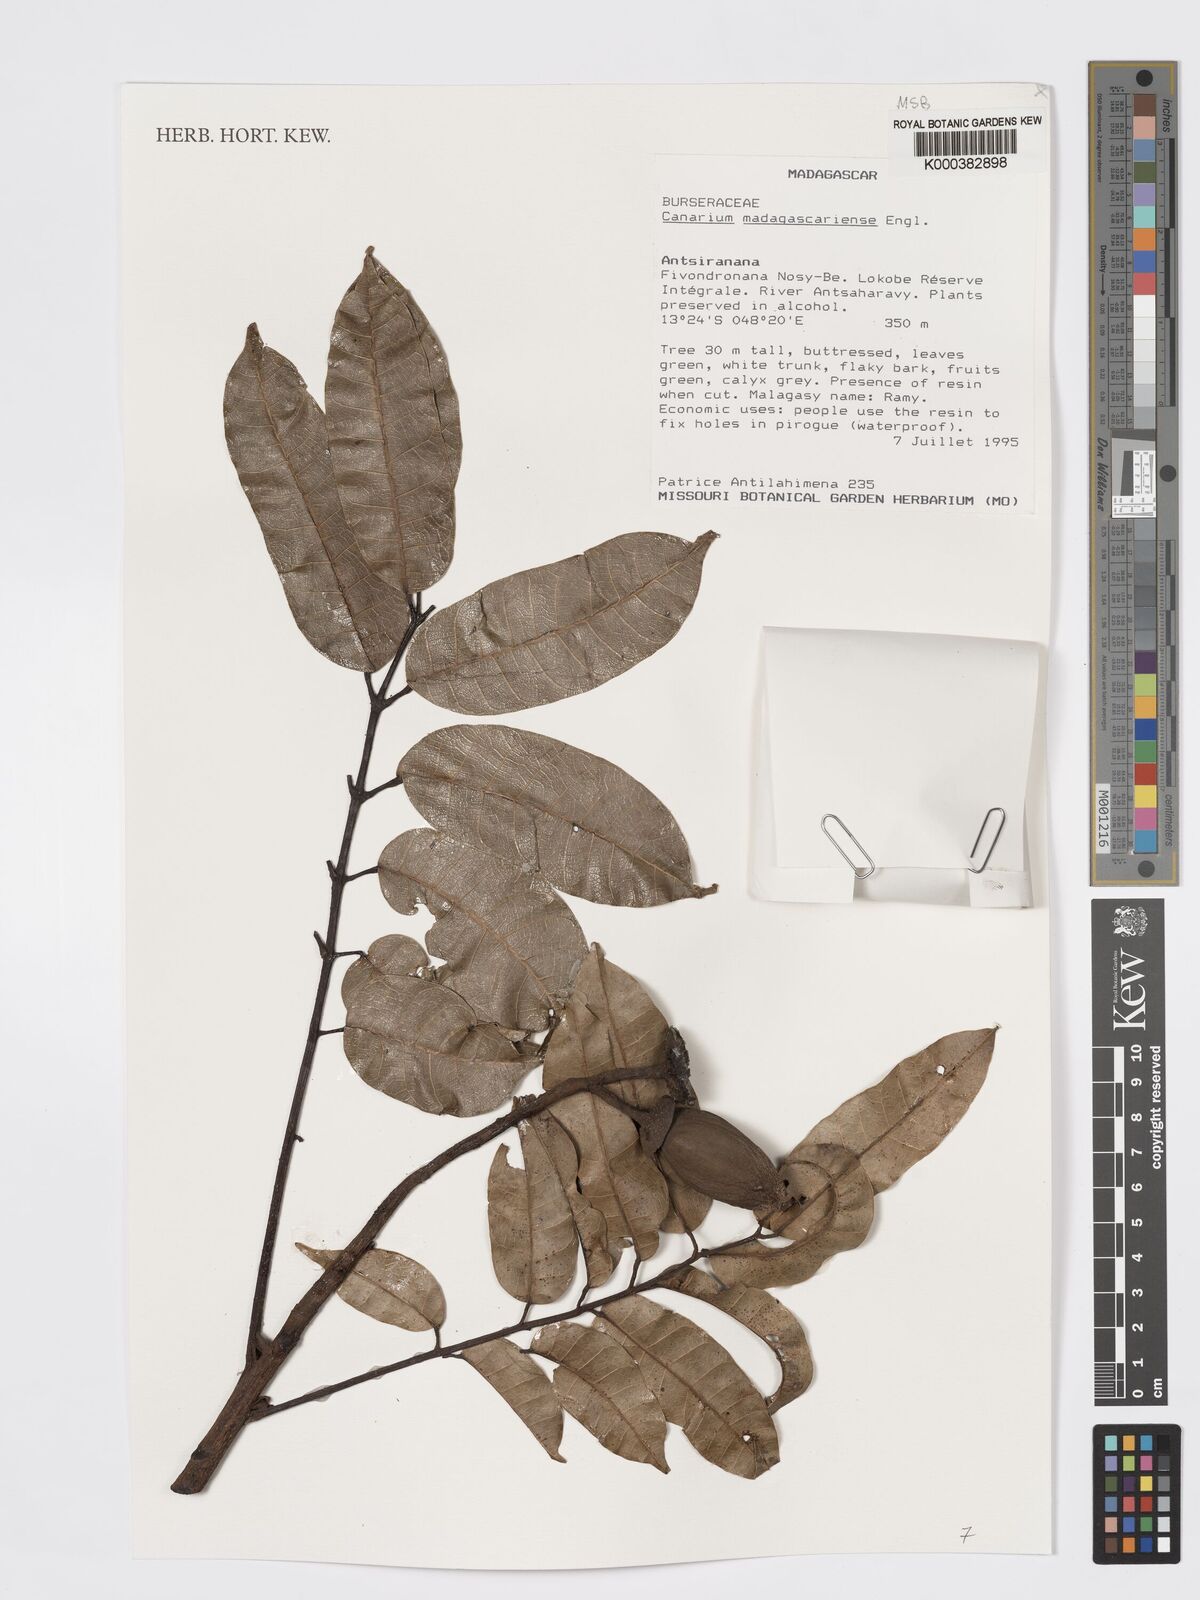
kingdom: Plantae
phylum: Tracheophyta
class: Magnoliopsida
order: Sapindales
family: Burseraceae
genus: Canarium
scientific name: Canarium madagascariense
